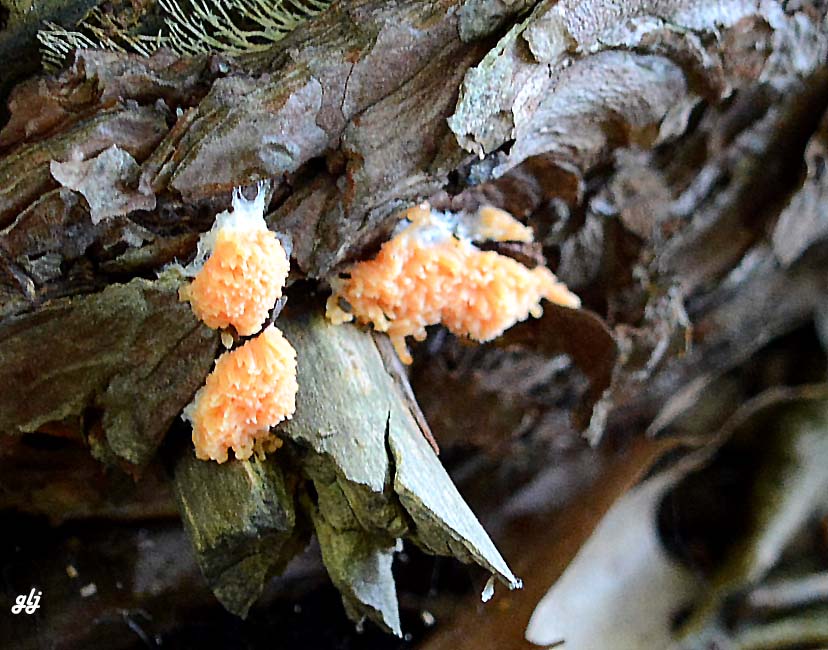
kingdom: Protozoa
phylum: Mycetozoa
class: Myxomycetes
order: Cribrariales
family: Tubiferaceae
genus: Tubifera
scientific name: Tubifera ferruginosa
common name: kanel-støvrør
